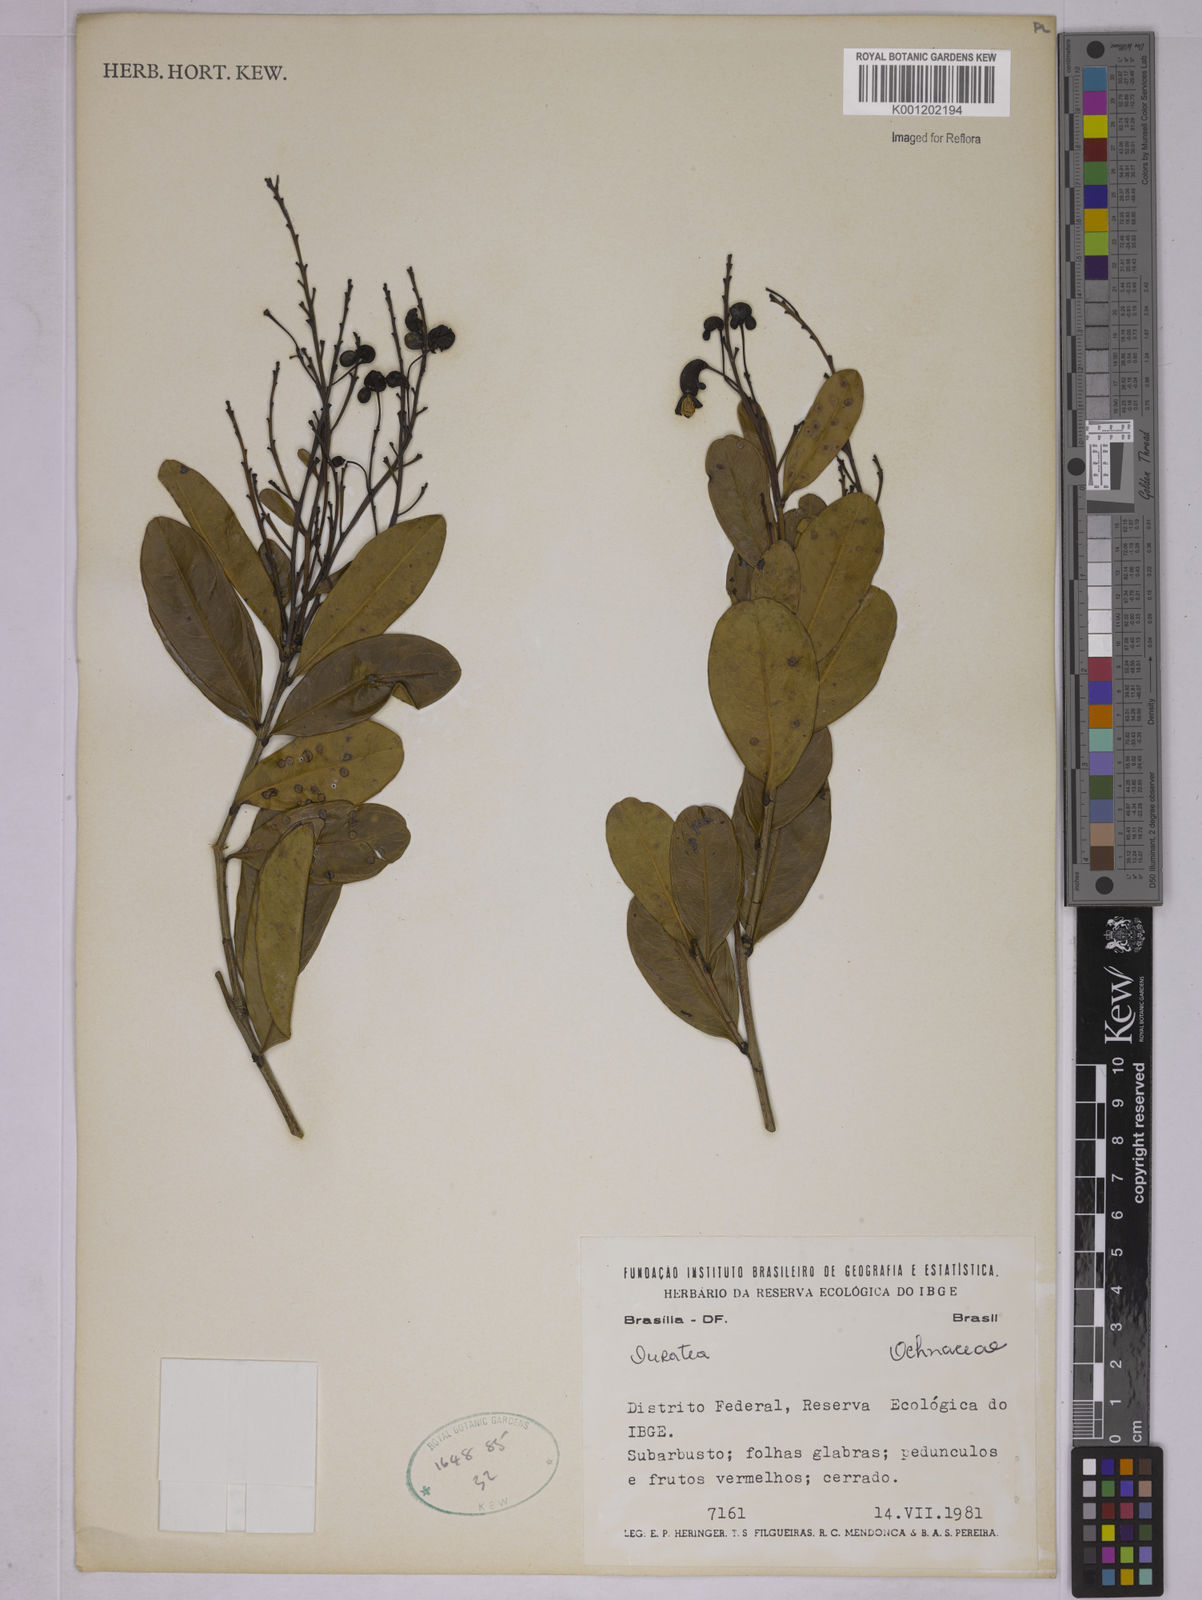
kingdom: Plantae
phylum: Tracheophyta
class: Magnoliopsida
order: Malpighiales
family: Ochnaceae
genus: Ouratea
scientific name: Ouratea
